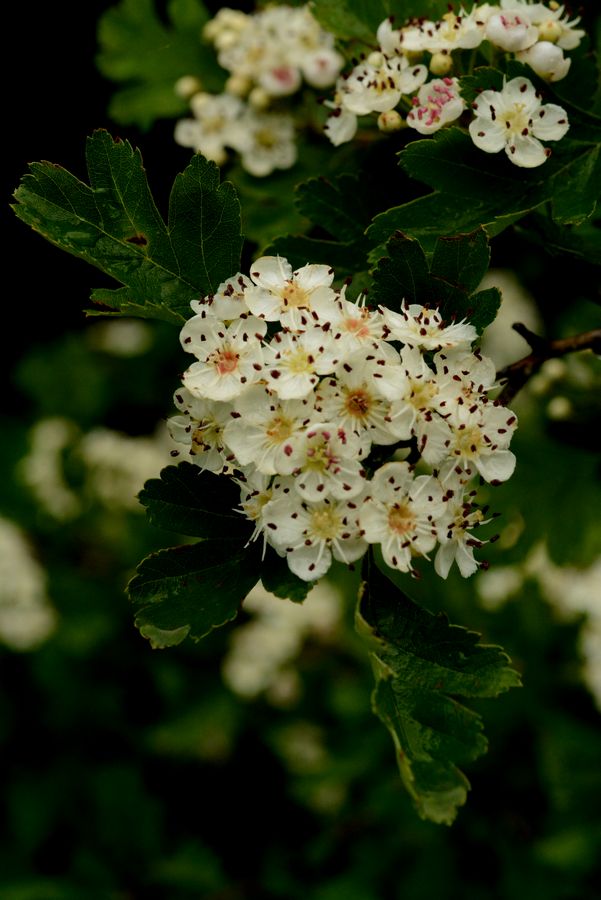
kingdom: Plantae
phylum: Tracheophyta
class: Magnoliopsida
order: Rosales
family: Rosaceae
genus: Crataegus
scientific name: Crataegus pentagyna
